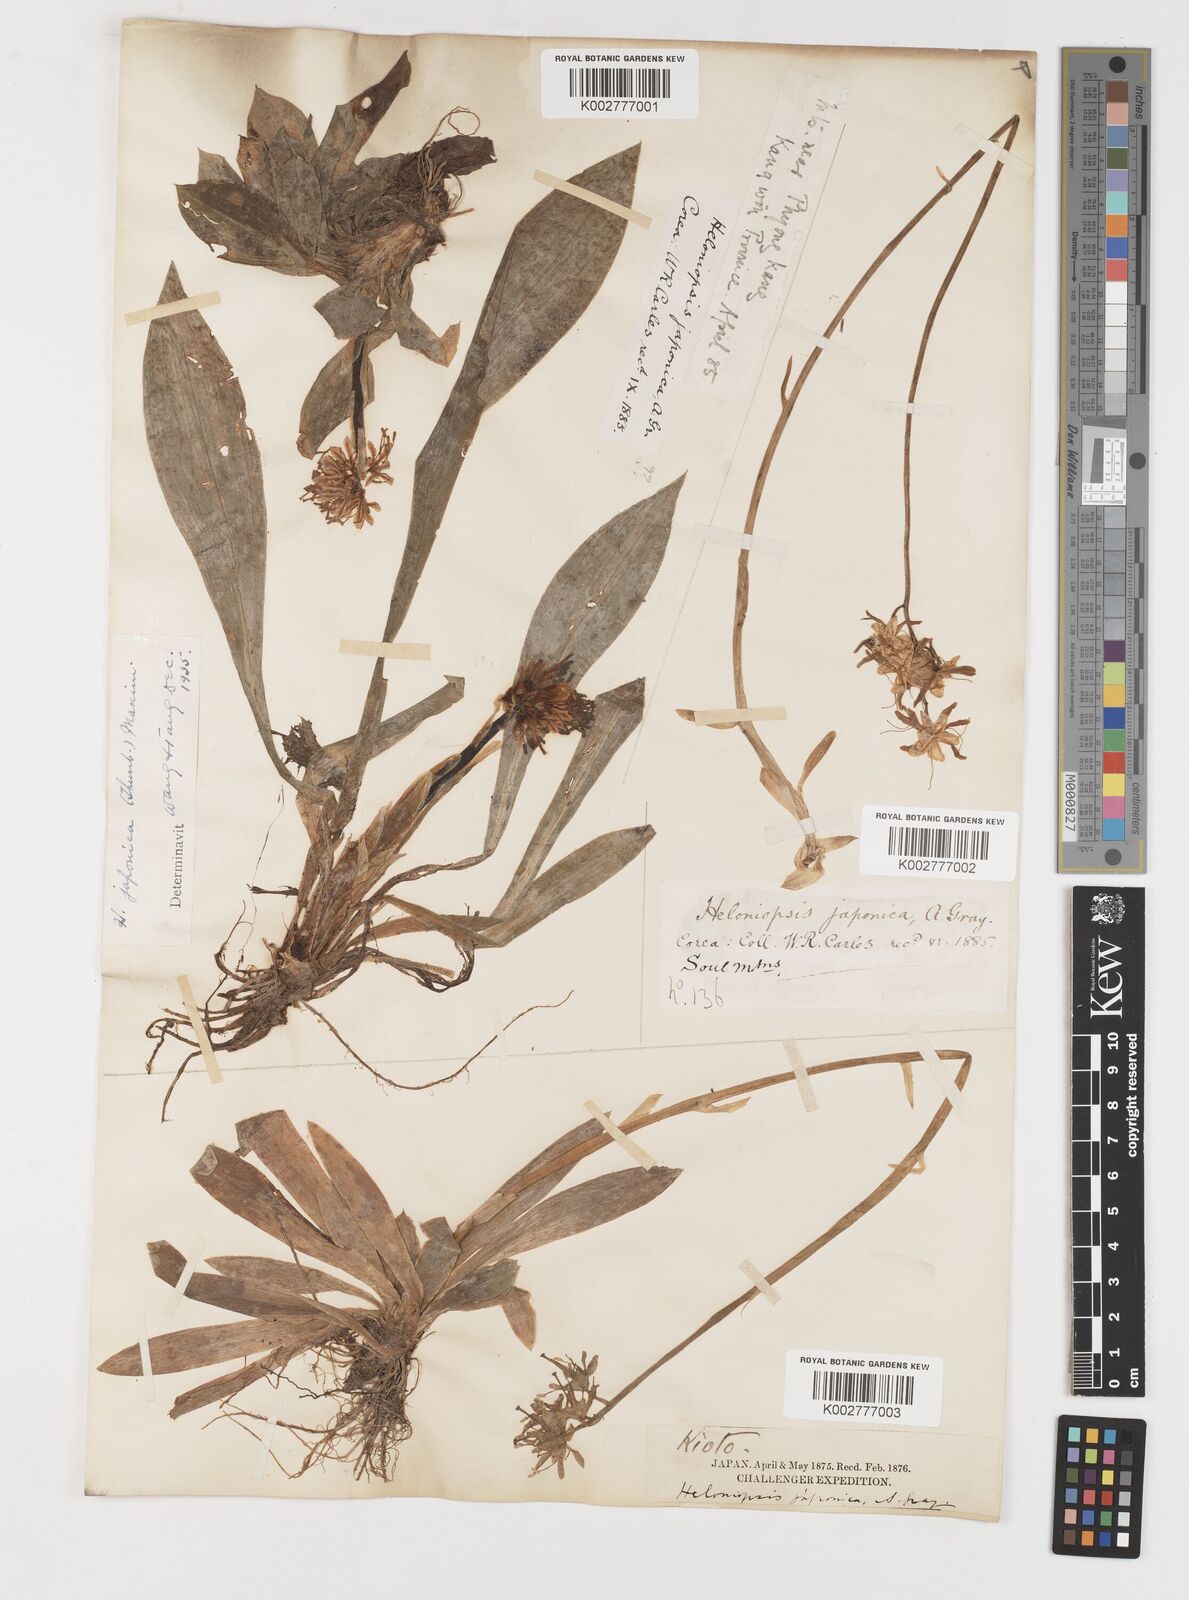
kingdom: Plantae
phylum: Tracheophyta
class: Liliopsida
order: Liliales
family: Melanthiaceae
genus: Helonias
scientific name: Helonias
